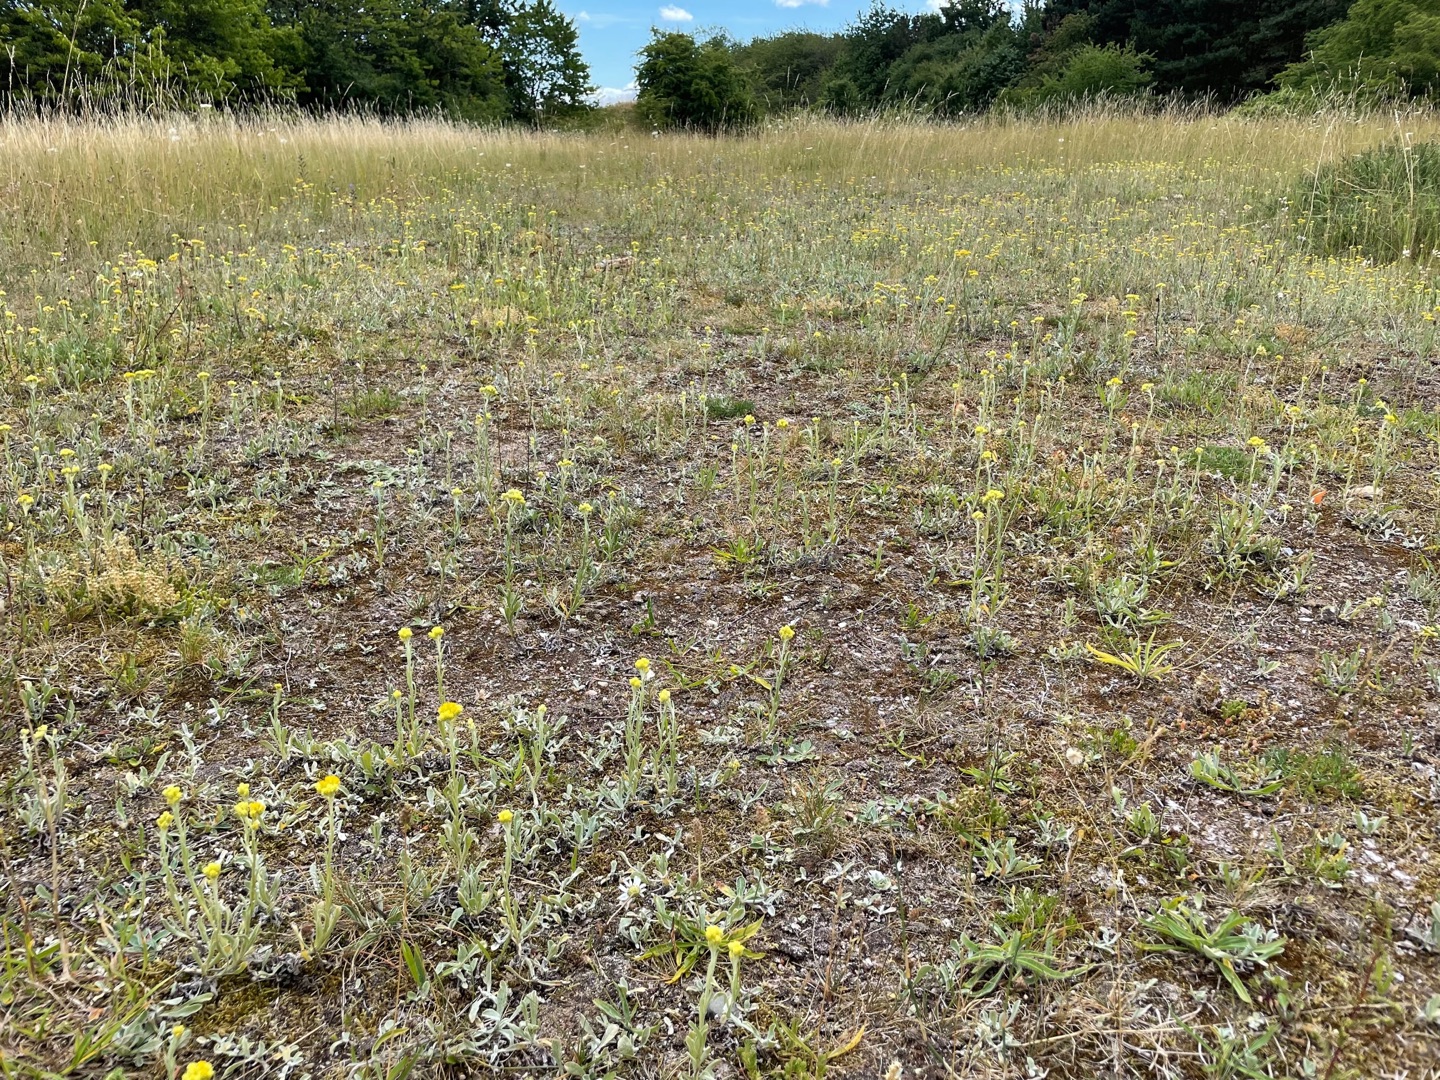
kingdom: Plantae
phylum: Tracheophyta
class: Magnoliopsida
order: Asterales
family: Asteraceae
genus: Helichrysum
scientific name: Helichrysum arenarium
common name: Gul evighedsblomst
